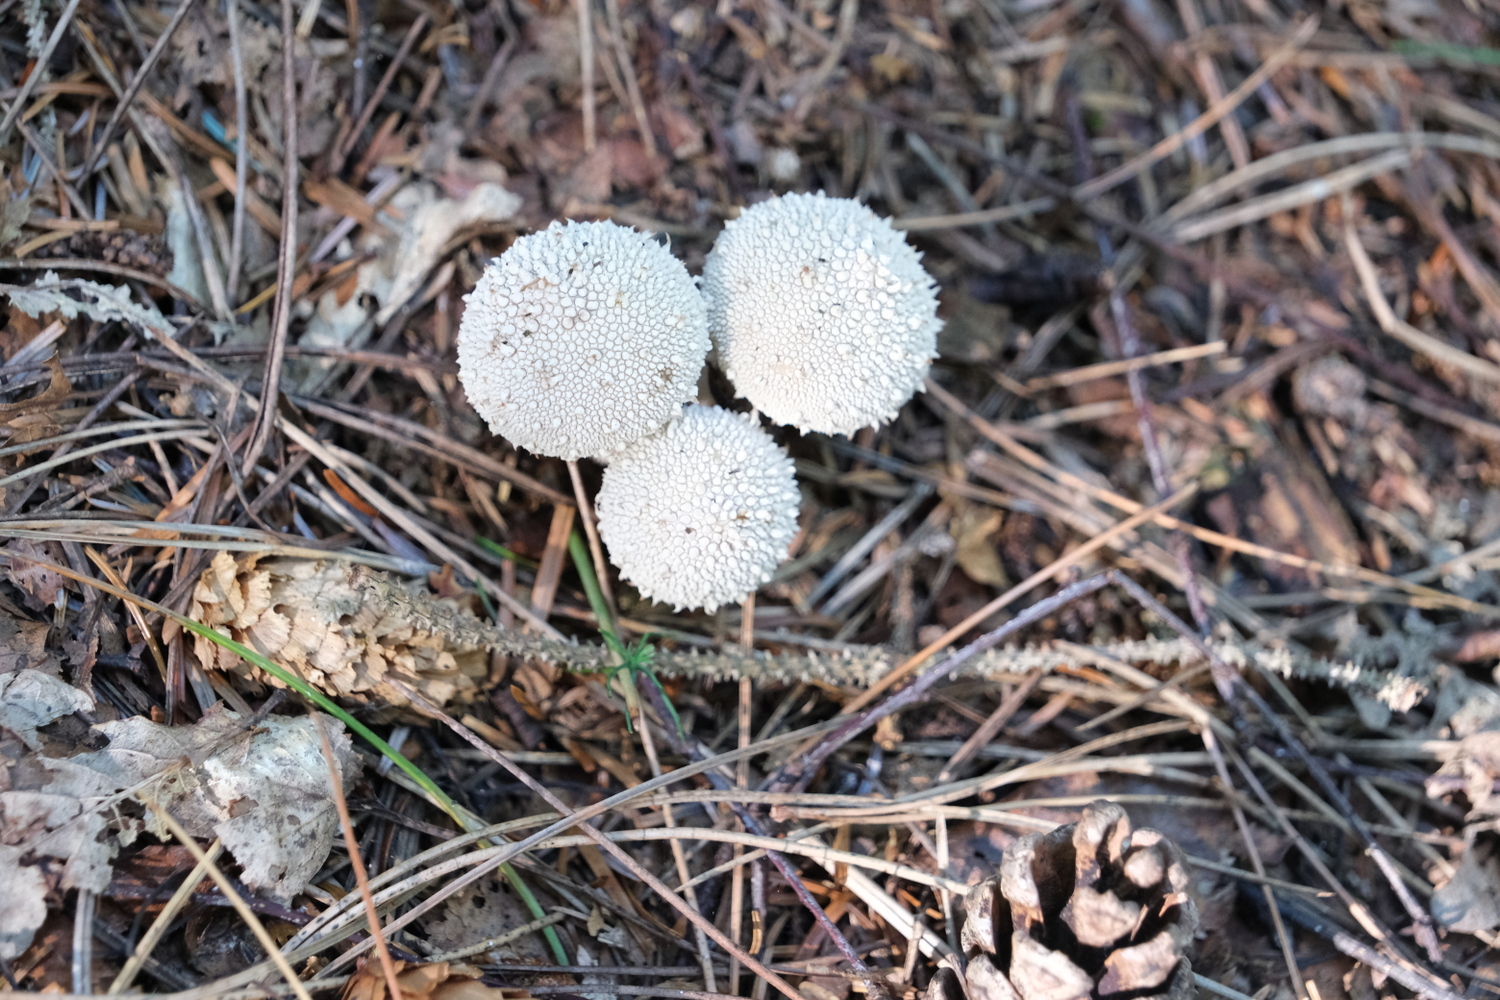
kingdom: Fungi
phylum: Basidiomycota
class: Agaricomycetes
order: Agaricales
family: Lycoperdaceae
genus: Lycoperdon
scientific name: Lycoperdon perlatum
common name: krystal-støvbold
